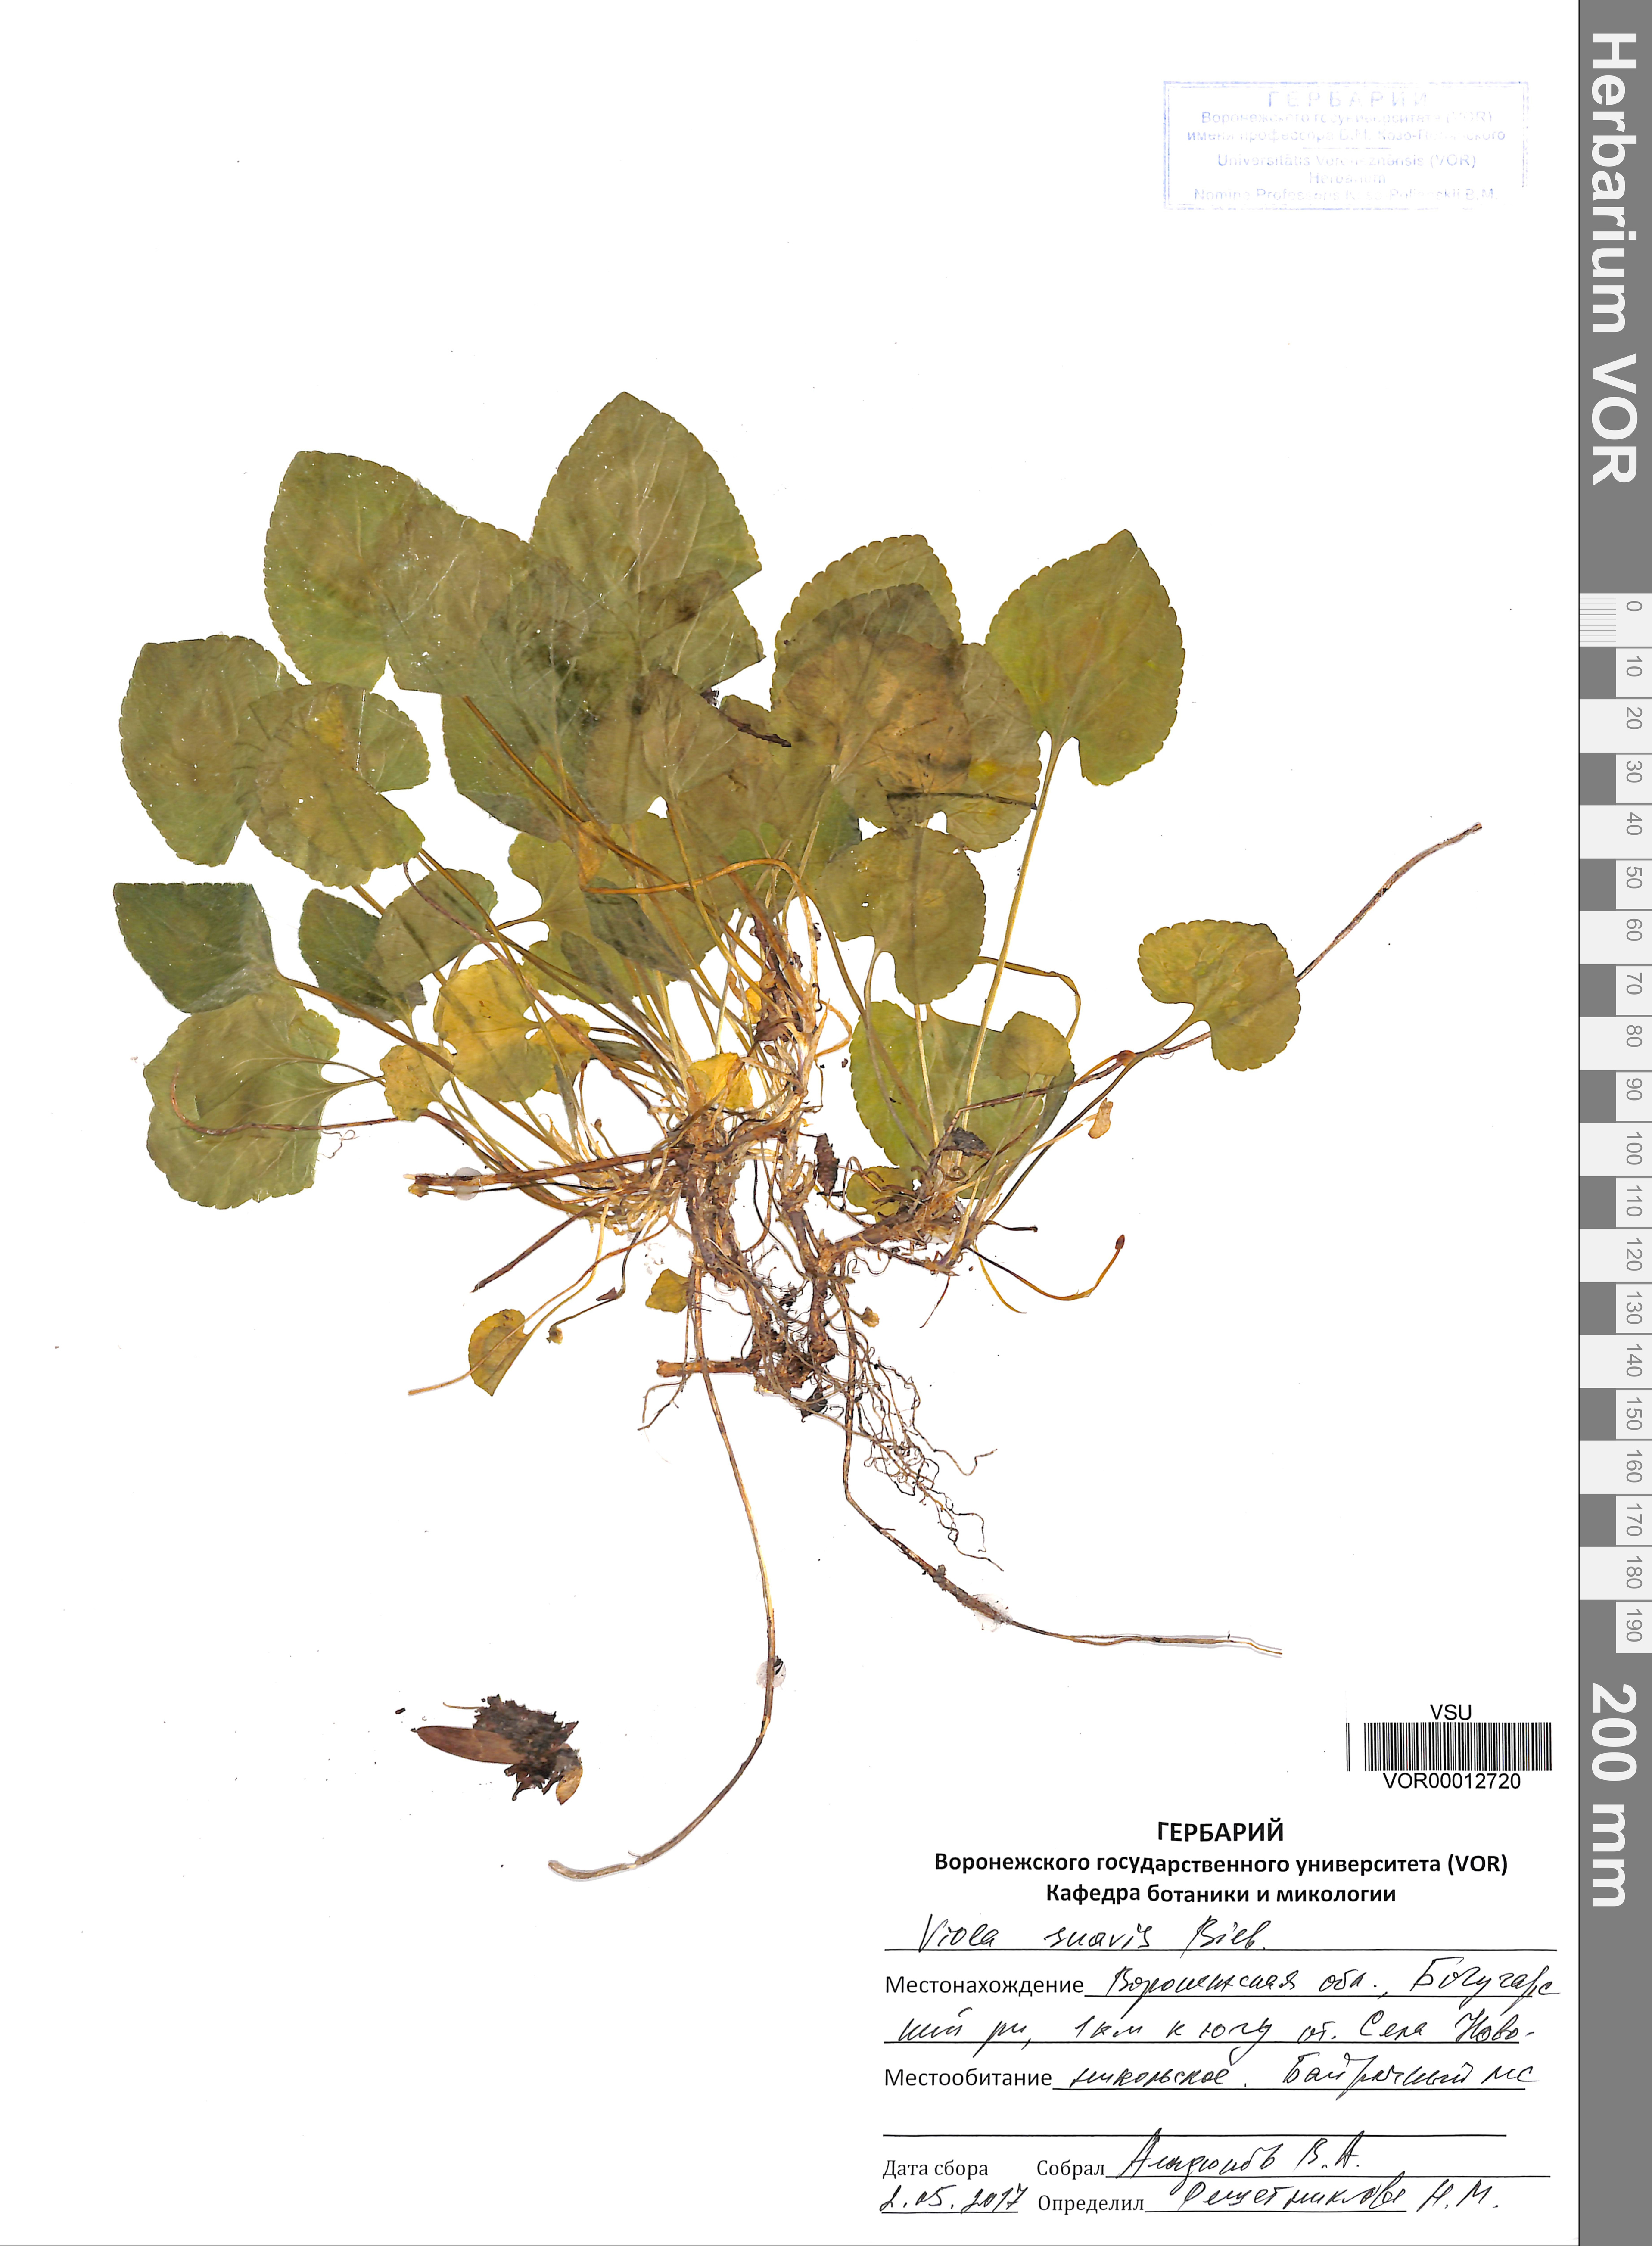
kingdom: Plantae
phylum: Tracheophyta
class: Magnoliopsida
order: Malpighiales
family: Violaceae
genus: Viola
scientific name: Viola suavis
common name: Russian violet
